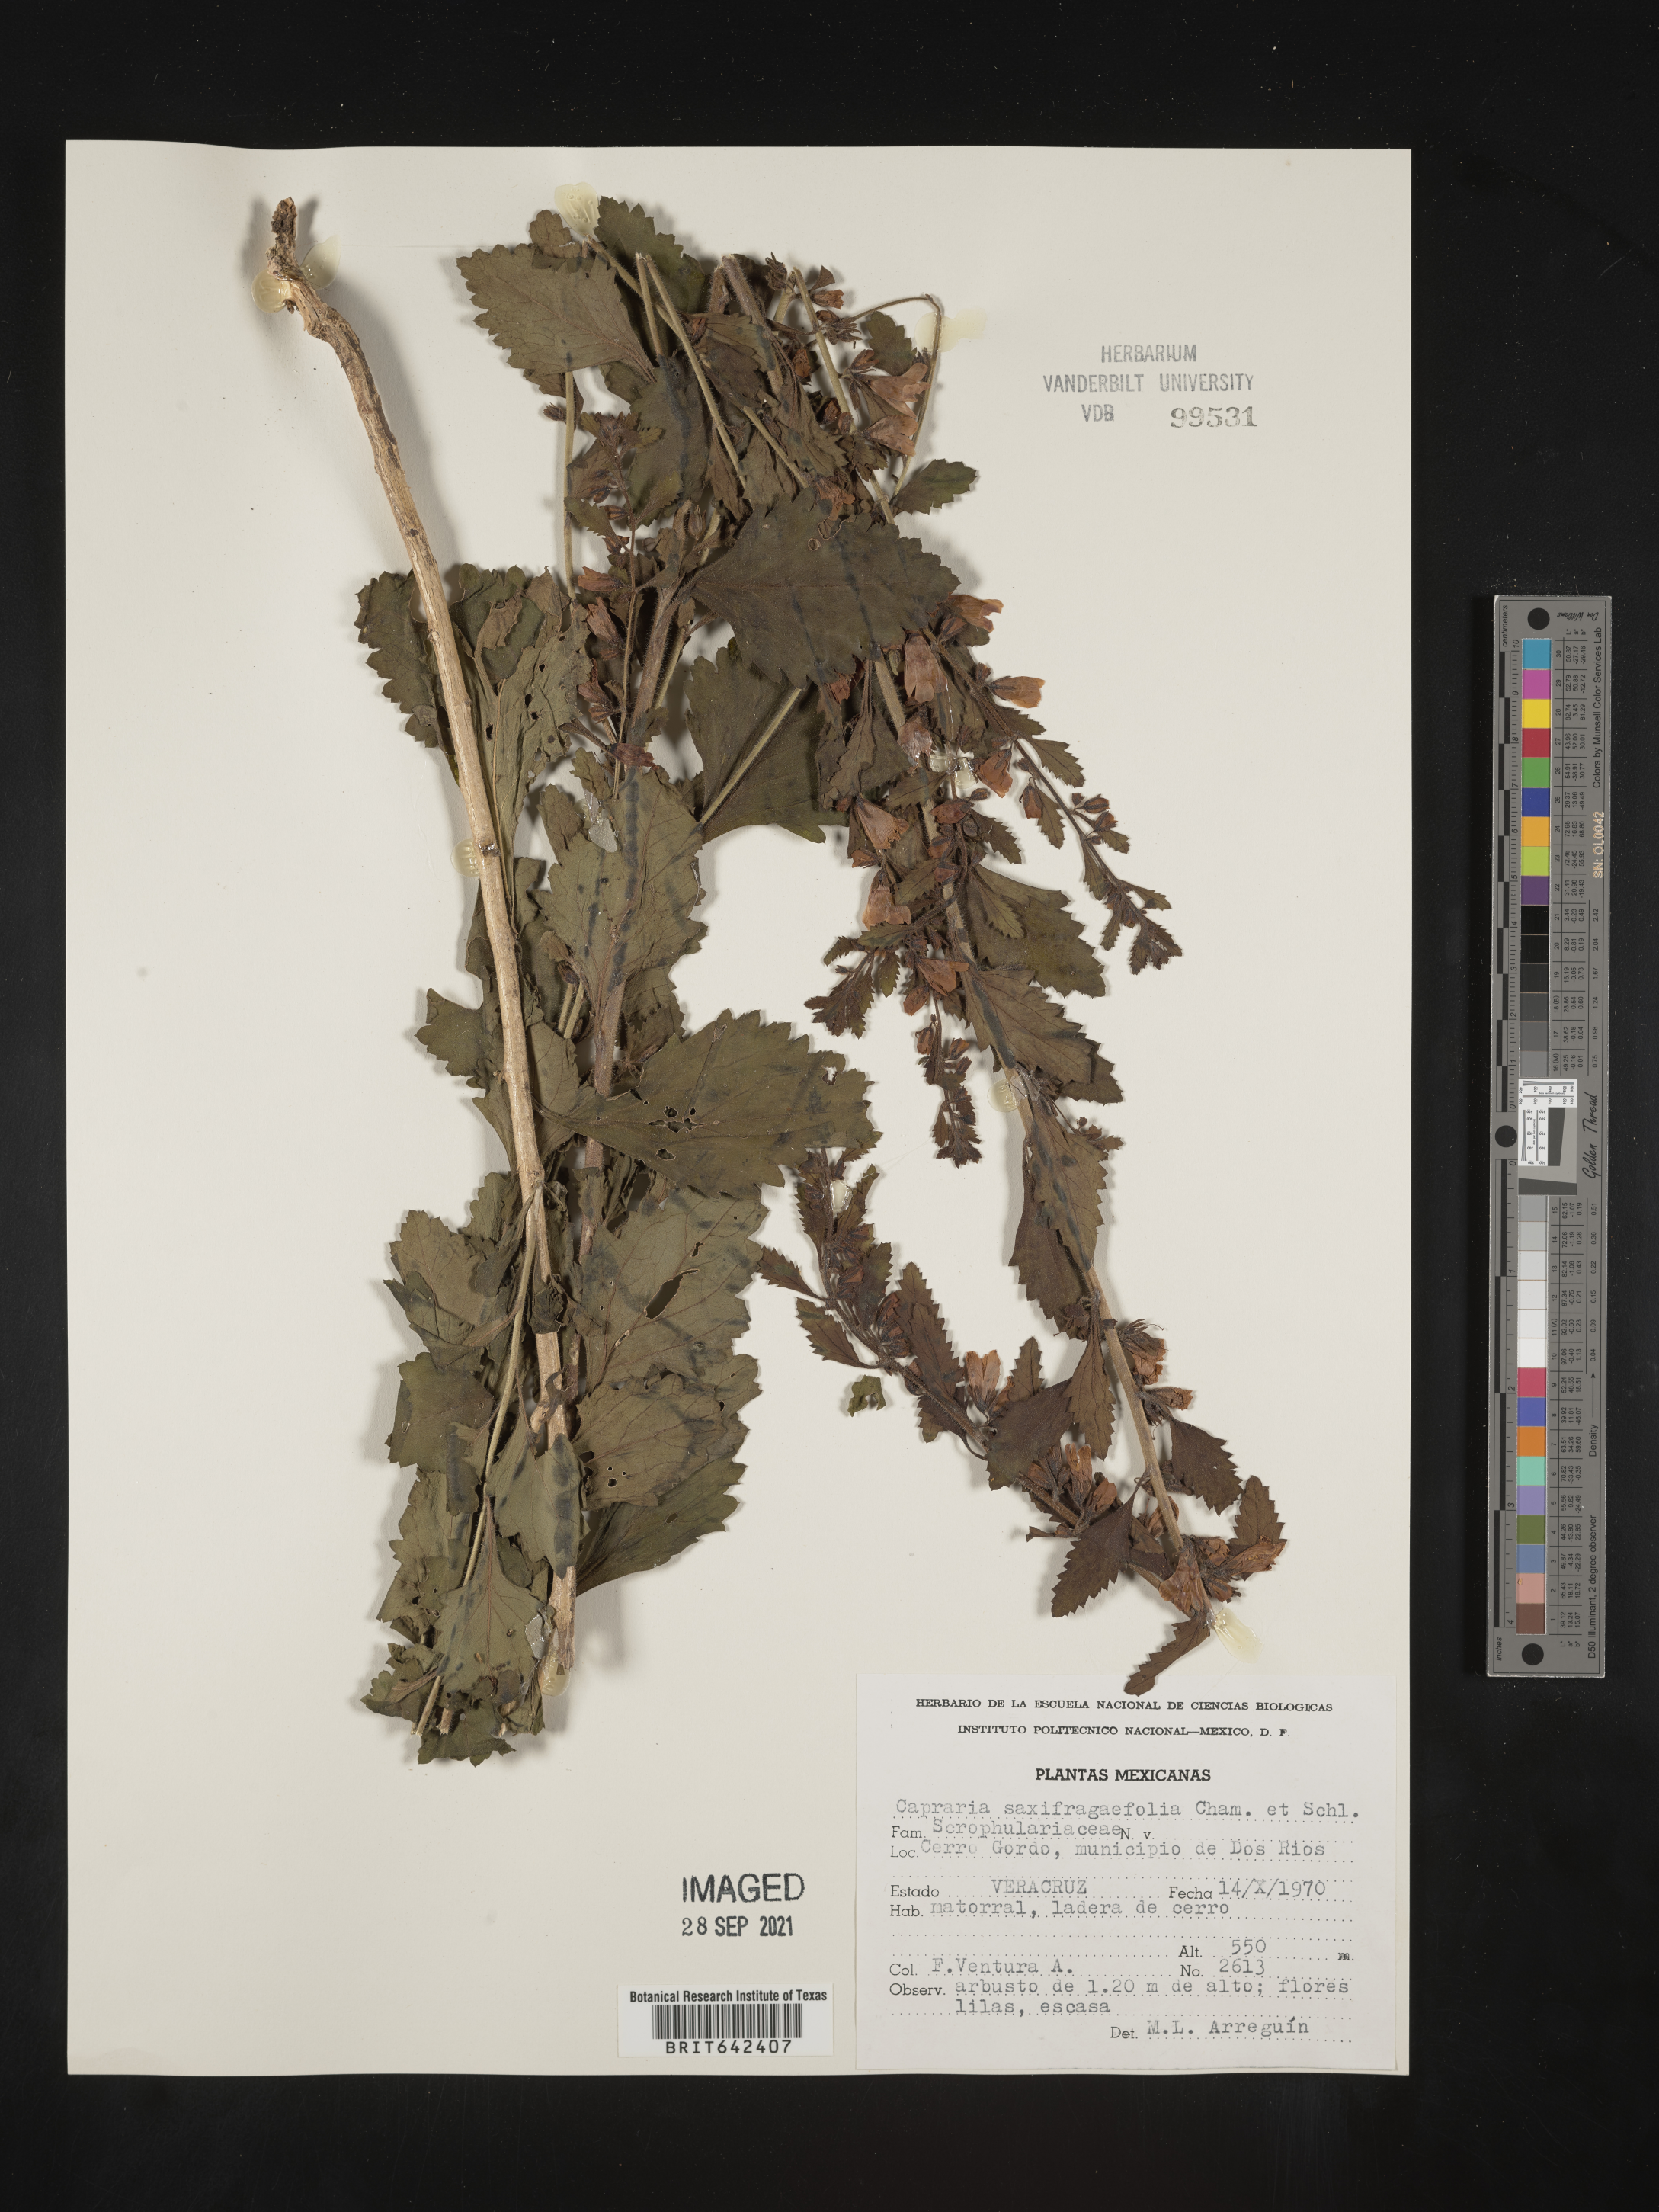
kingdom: Plantae
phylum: Tracheophyta
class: Magnoliopsida
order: Lamiales
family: Scrophulariaceae
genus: Capraria
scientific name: Capraria
